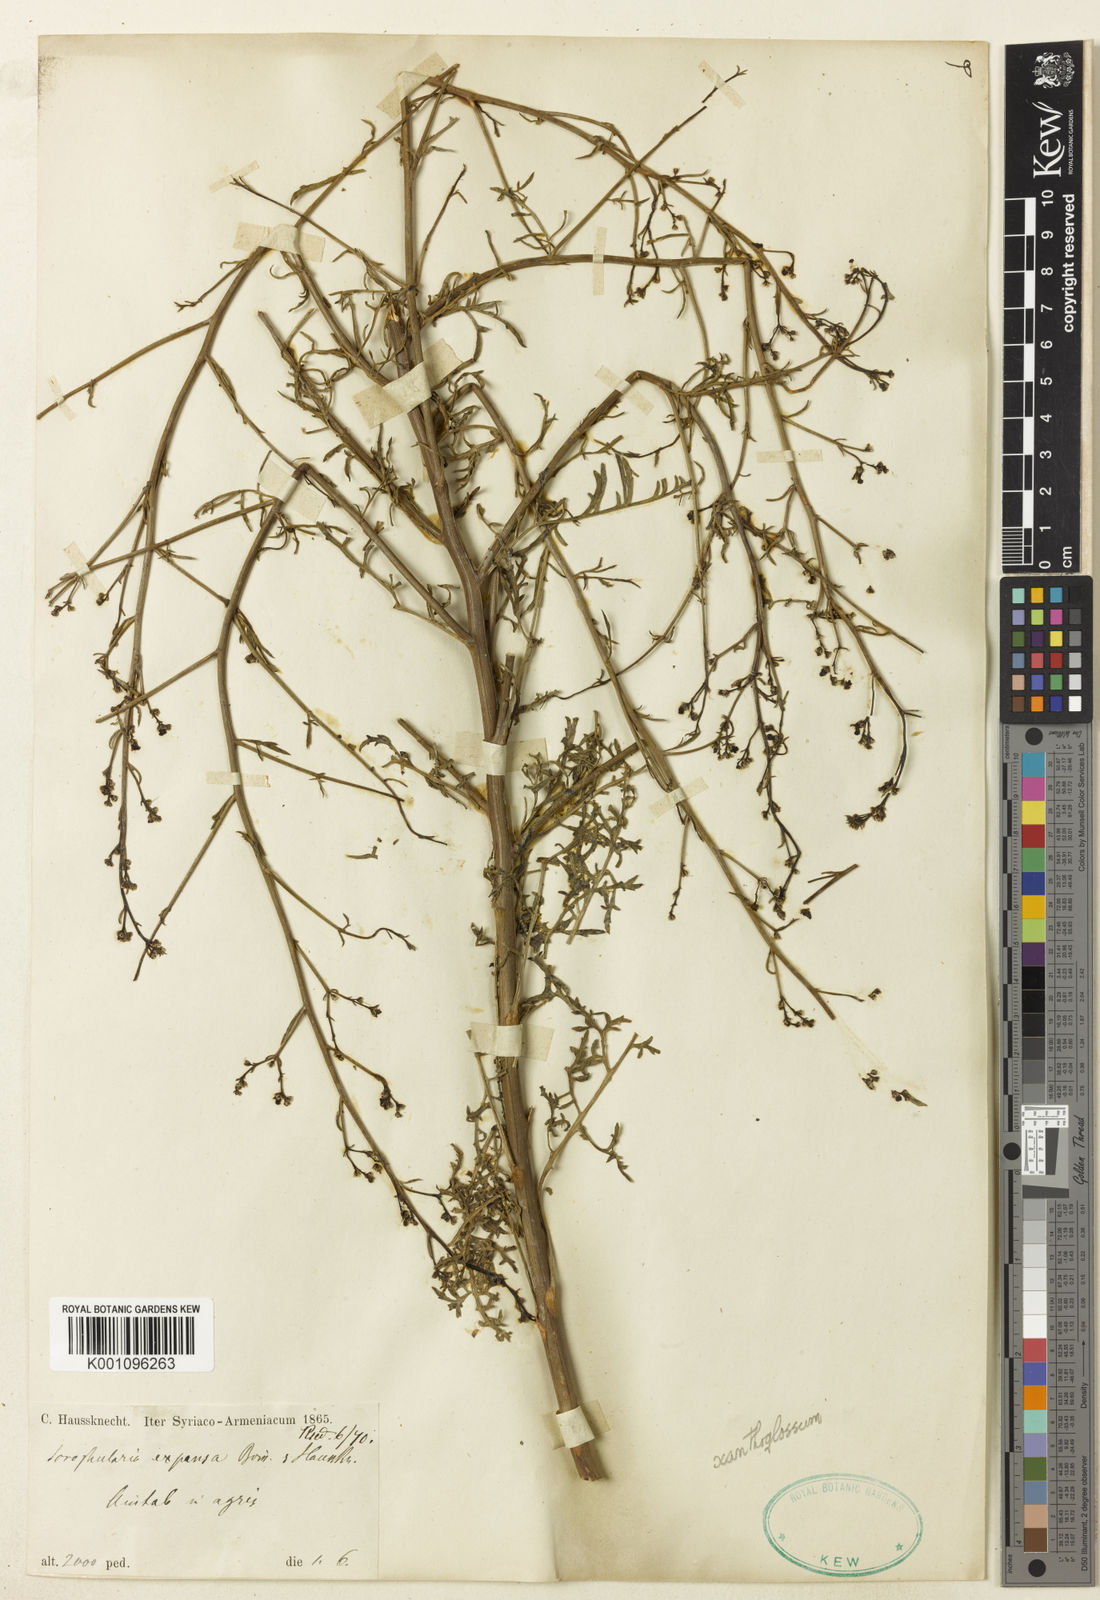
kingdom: Plantae
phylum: Tracheophyta
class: Magnoliopsida
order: Lamiales
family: Scrophulariaceae
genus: Scrophularia
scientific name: Scrophularia xanthoglossa
